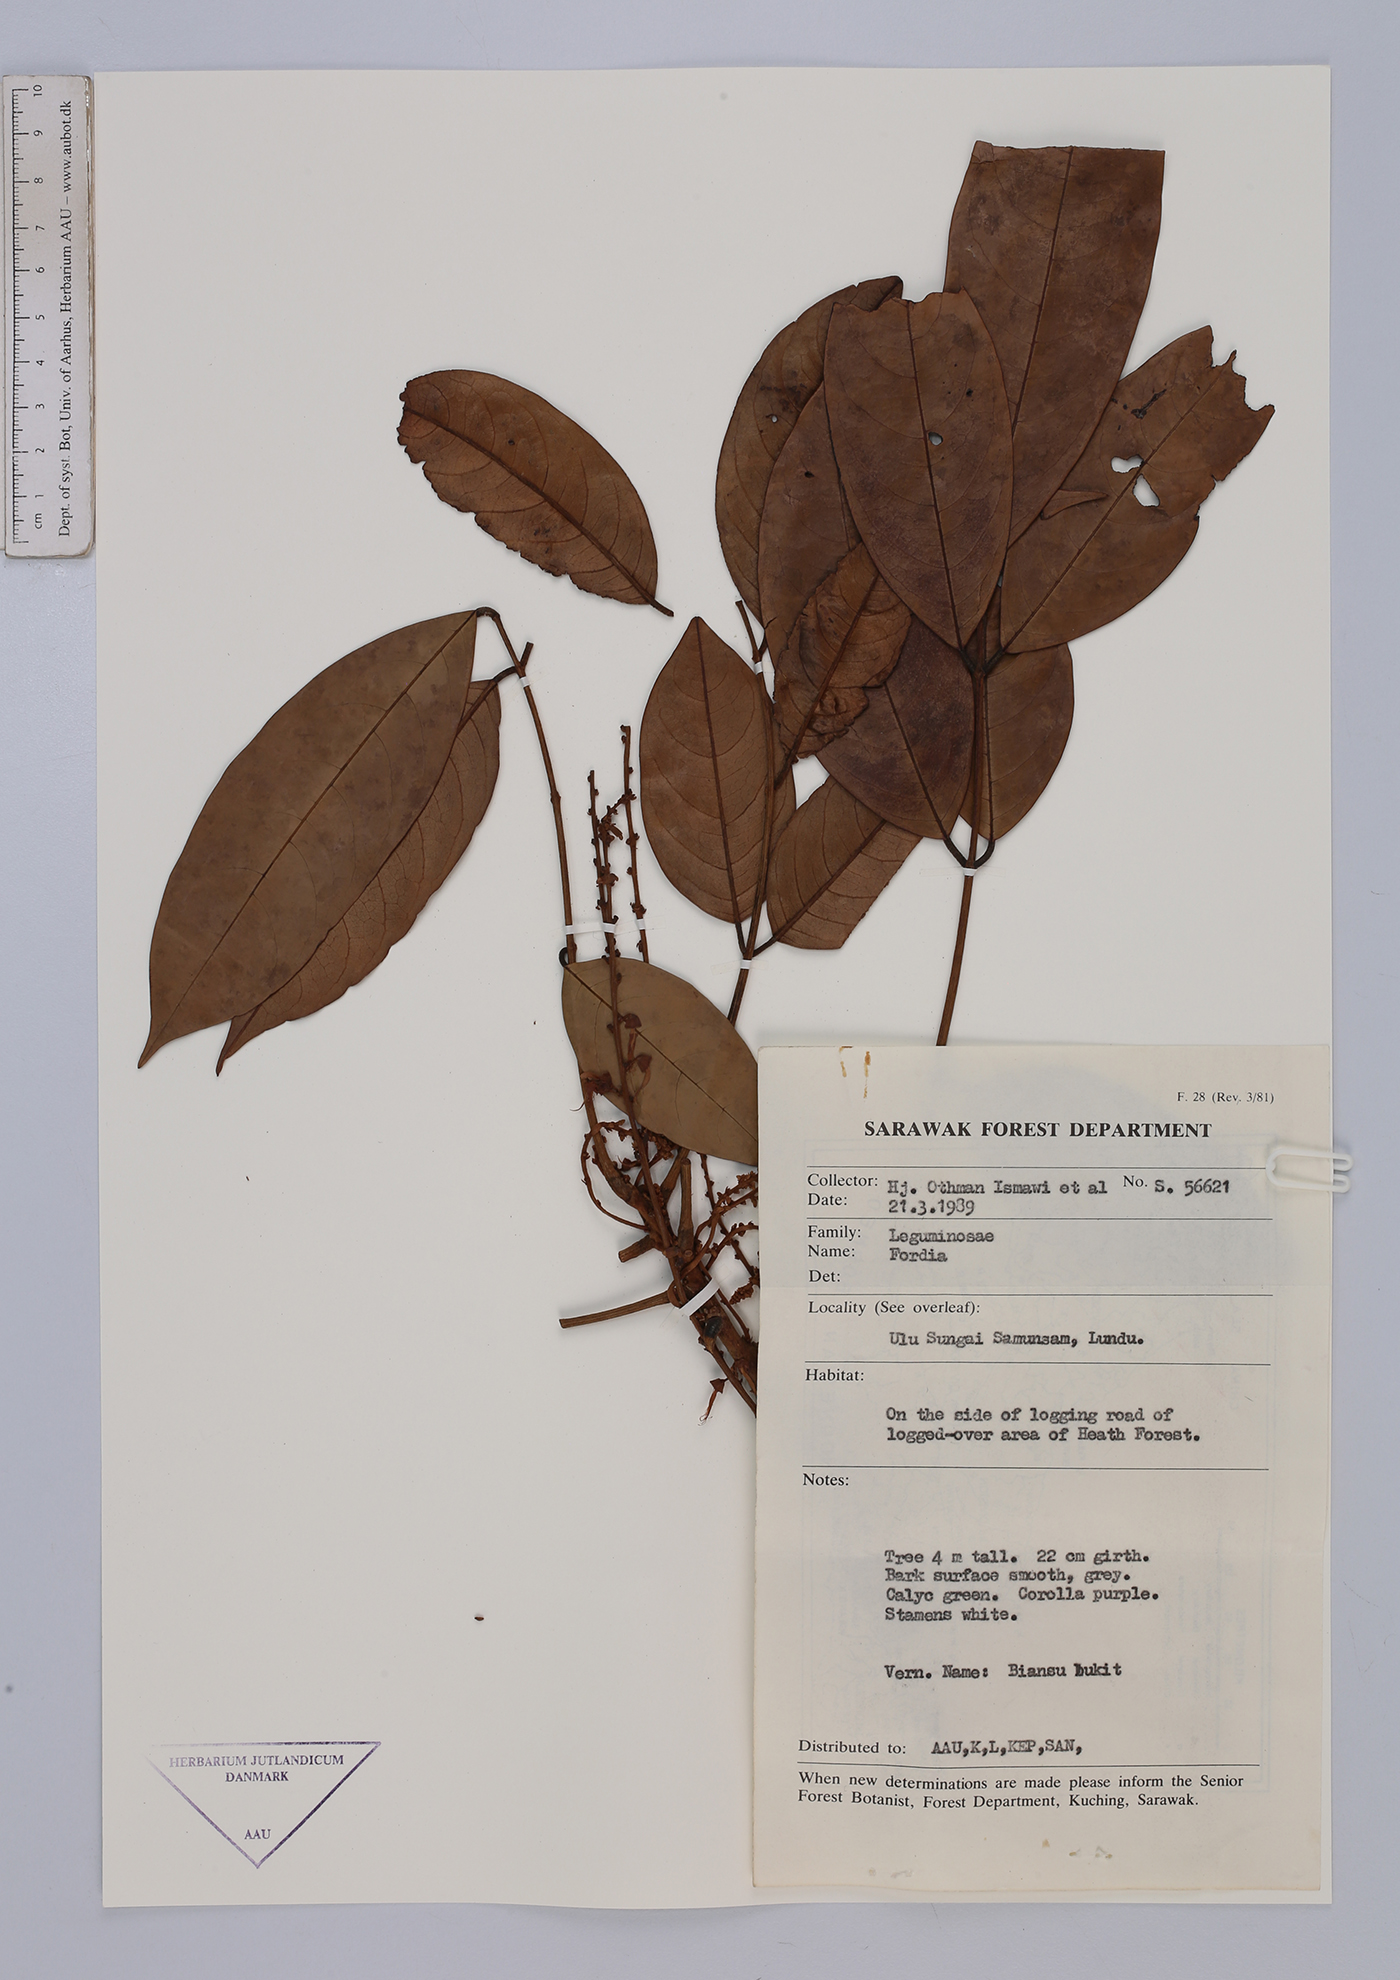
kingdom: Plantae
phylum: Tracheophyta
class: Magnoliopsida
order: Fabales
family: Fabaceae
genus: Fordia
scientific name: Fordia
